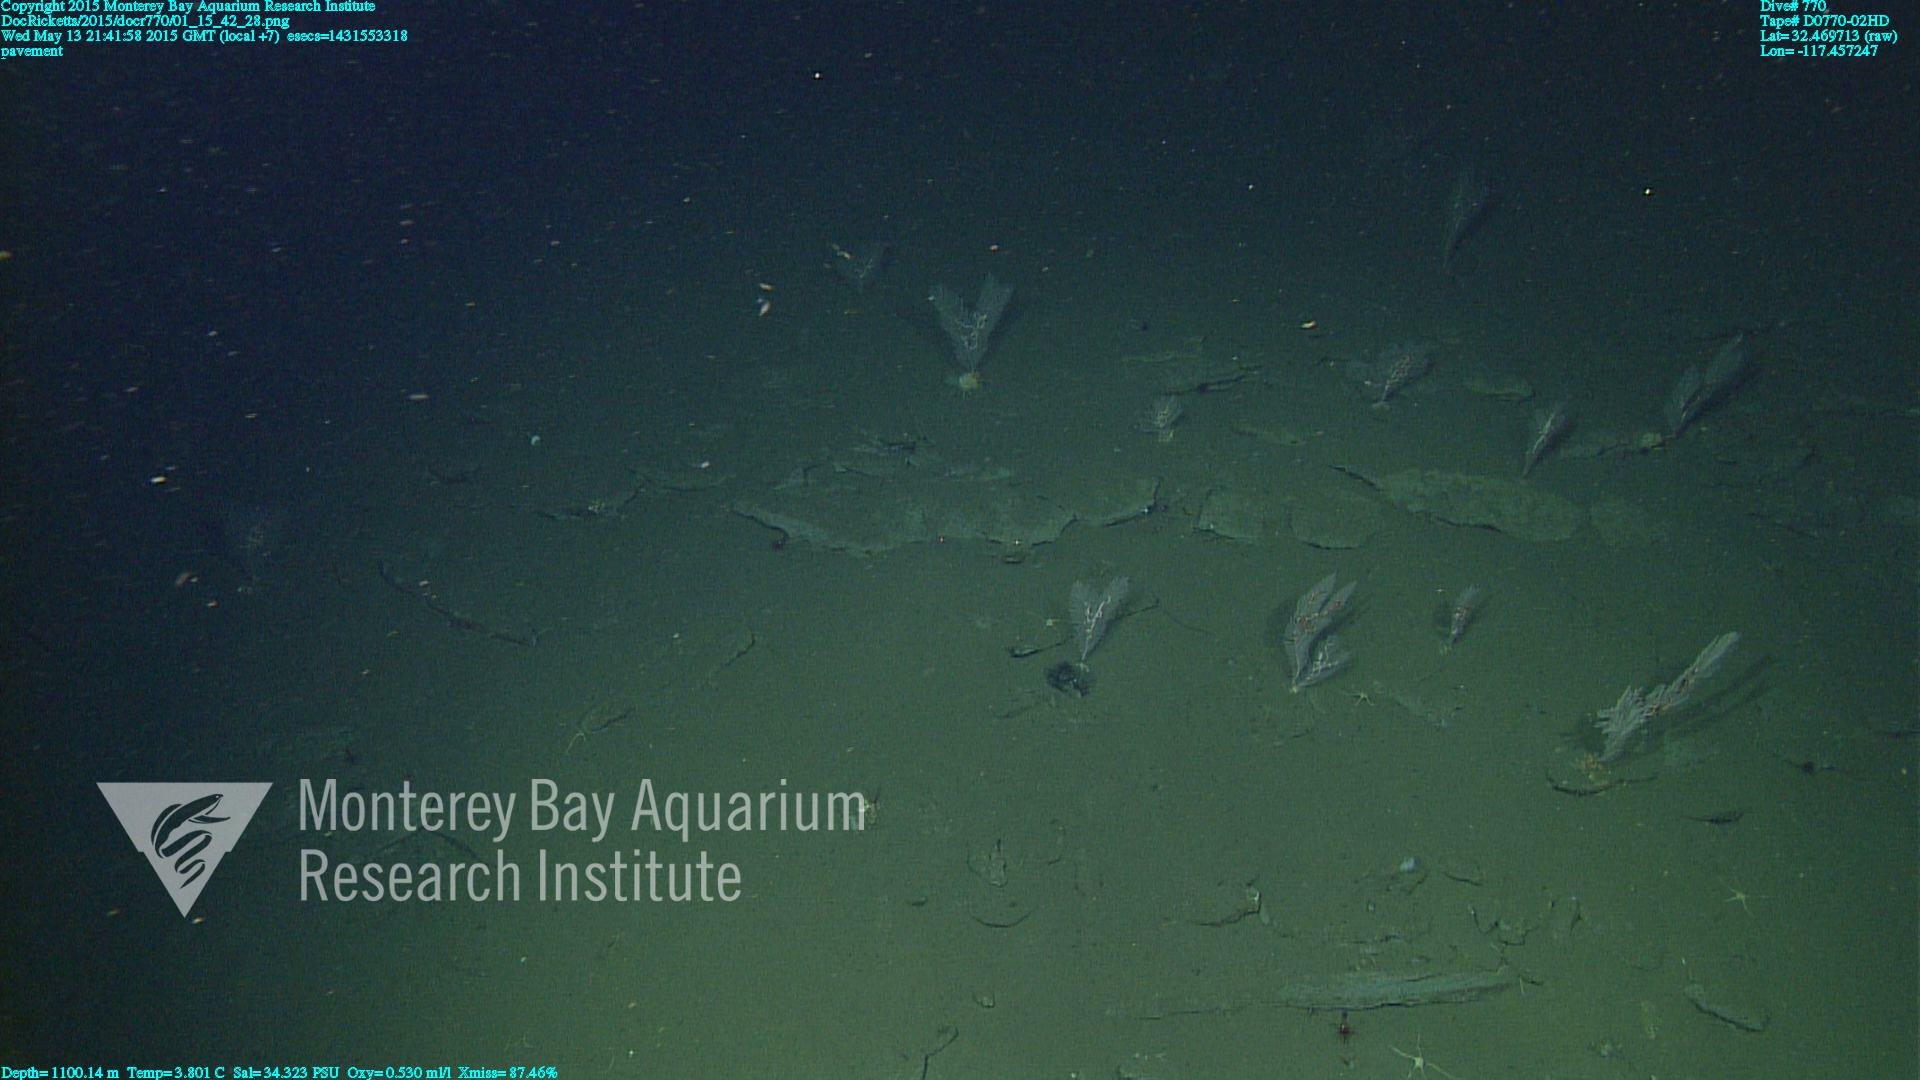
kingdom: Animalia
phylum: Cnidaria
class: Anthozoa
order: Scleralcyonacea
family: Primnoidae
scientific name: Primnoidae
